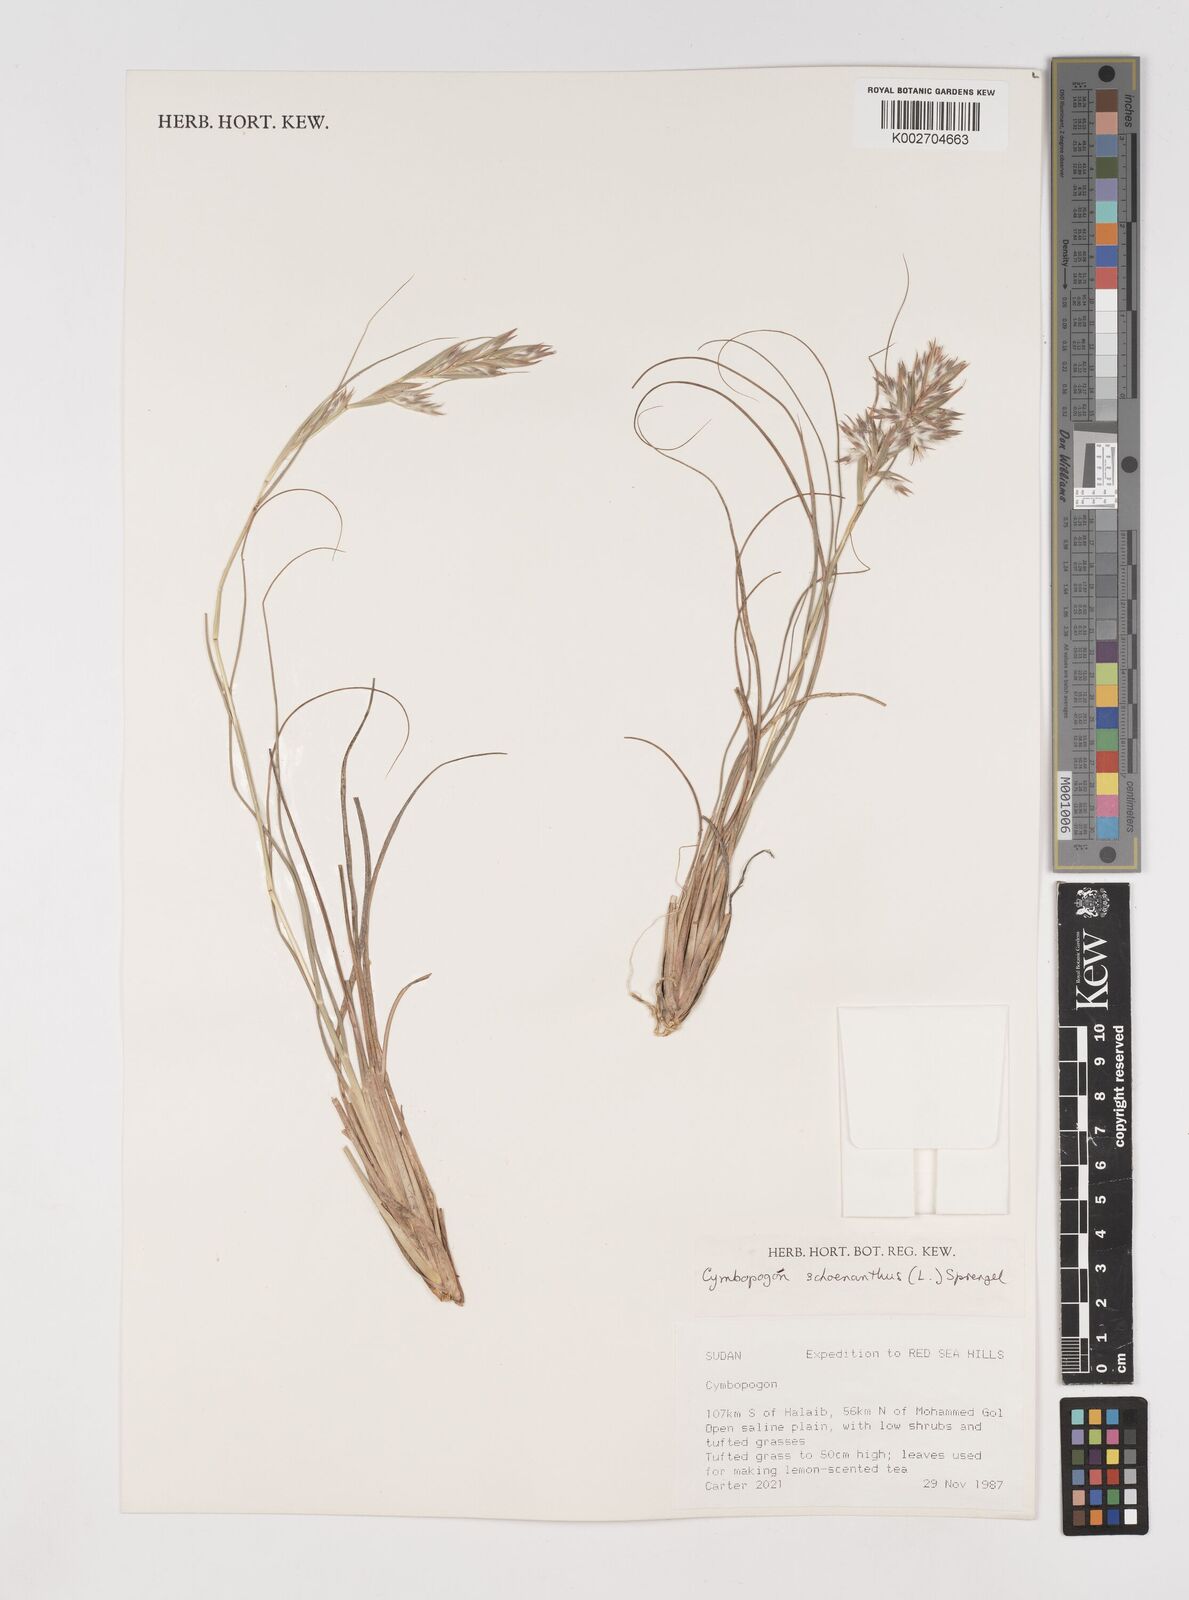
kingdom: Plantae
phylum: Tracheophyta
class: Liliopsida
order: Poales
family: Poaceae
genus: Cymbopogon
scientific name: Cymbopogon schoenanthus
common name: Geranium grass
